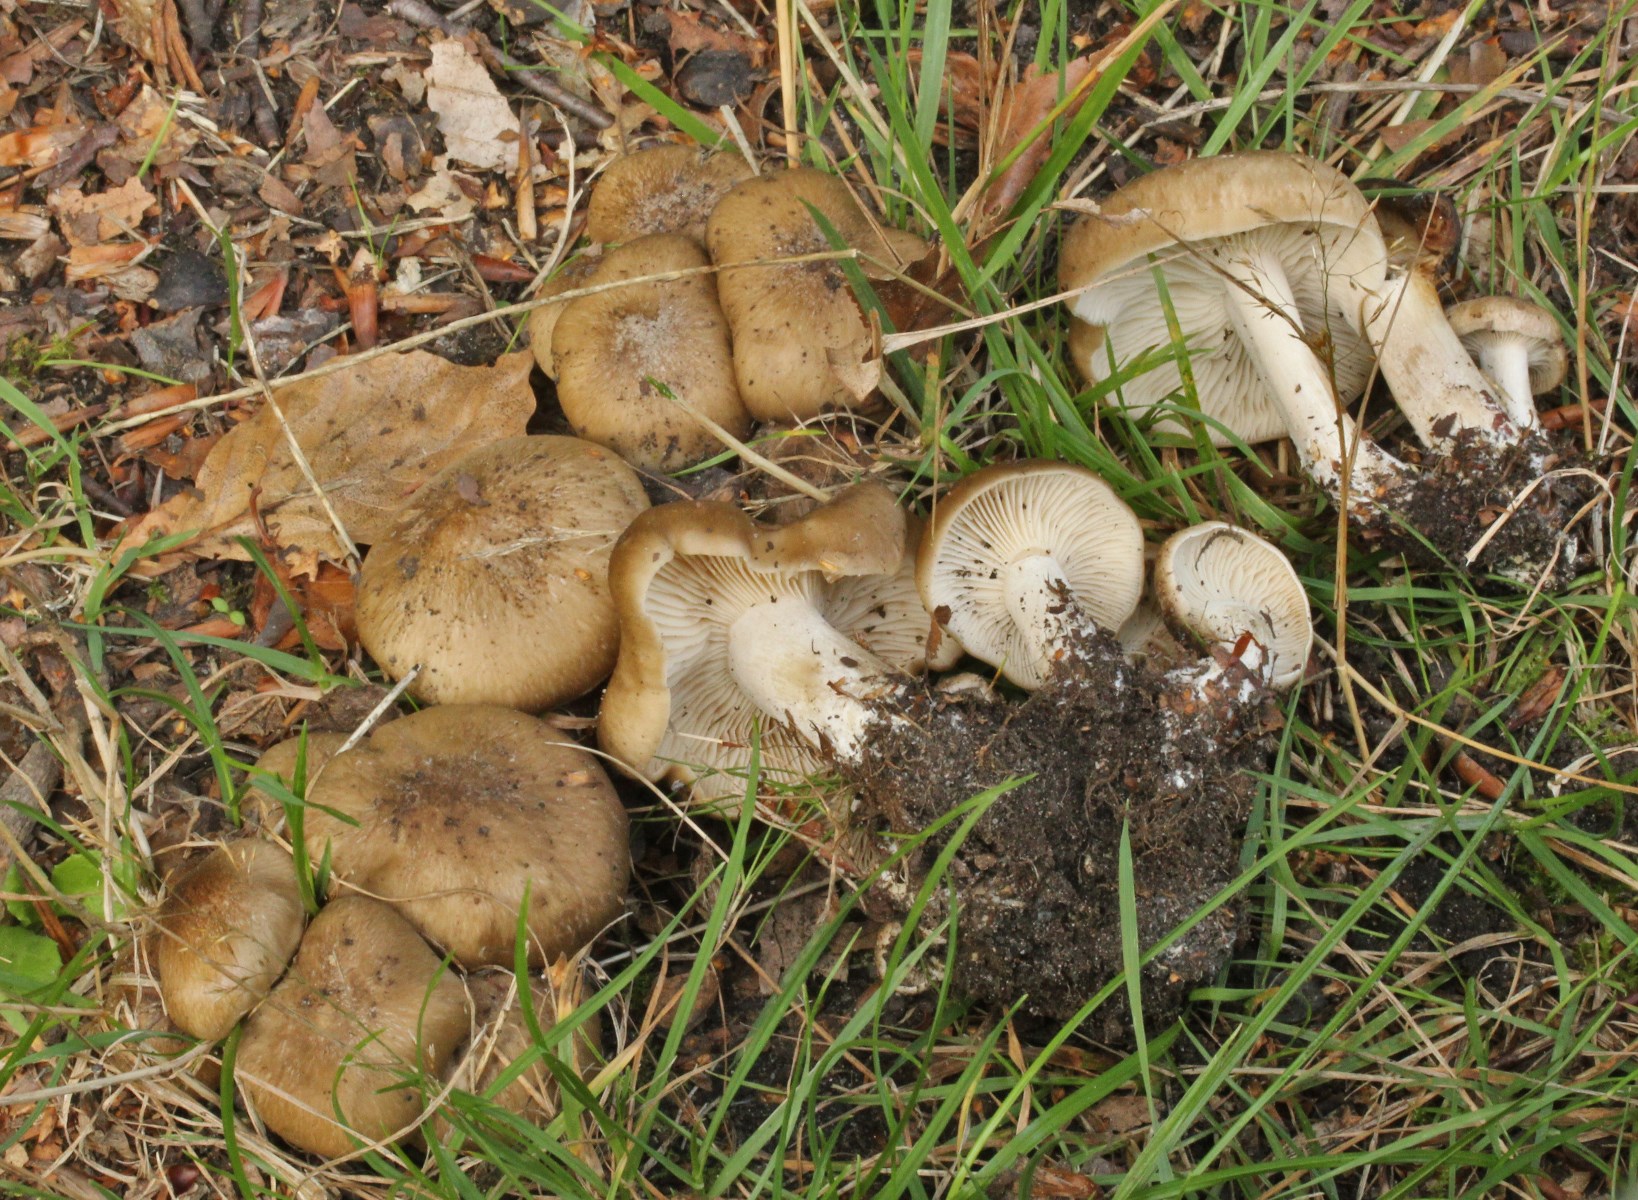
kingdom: Fungi
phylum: Basidiomycota
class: Agaricomycetes
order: Agaricales
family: Lyophyllaceae
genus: Lyophyllum
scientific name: Lyophyllum decastes
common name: Clustered domecap
